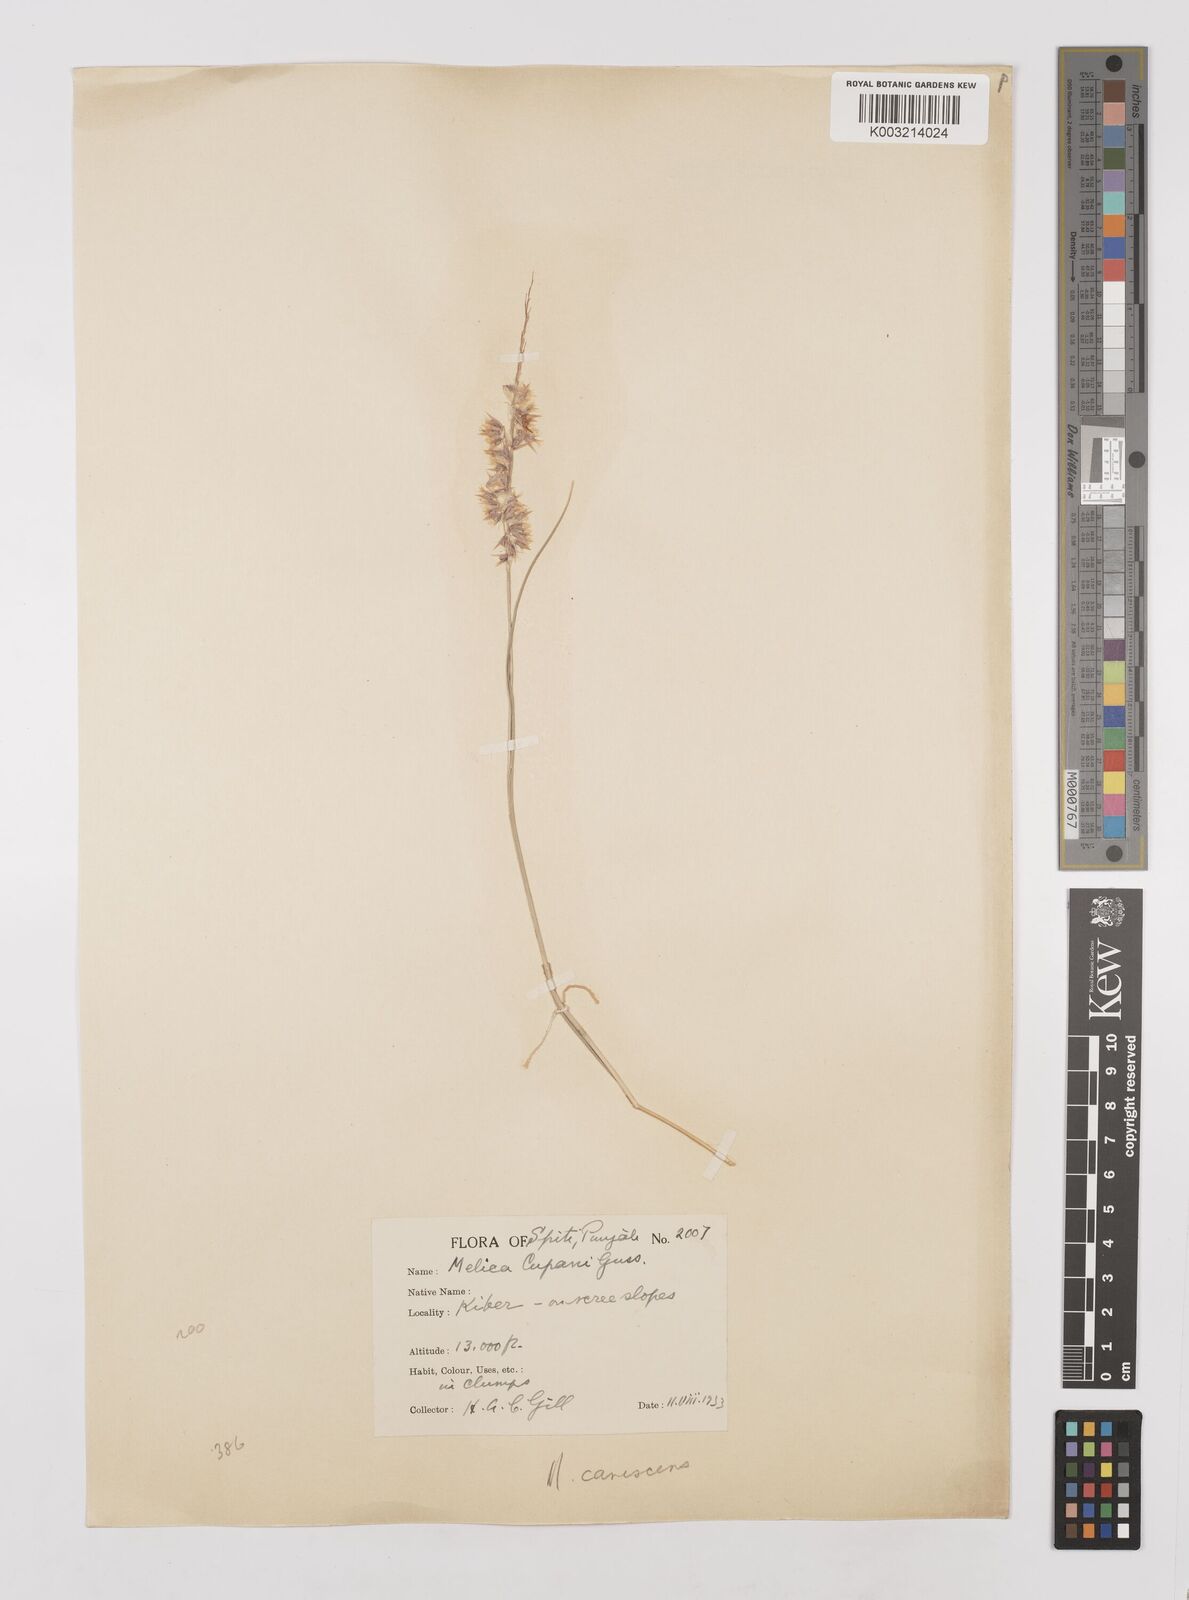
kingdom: Plantae
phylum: Tracheophyta
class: Liliopsida
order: Poales
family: Poaceae
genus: Melica
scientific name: Melica persica
